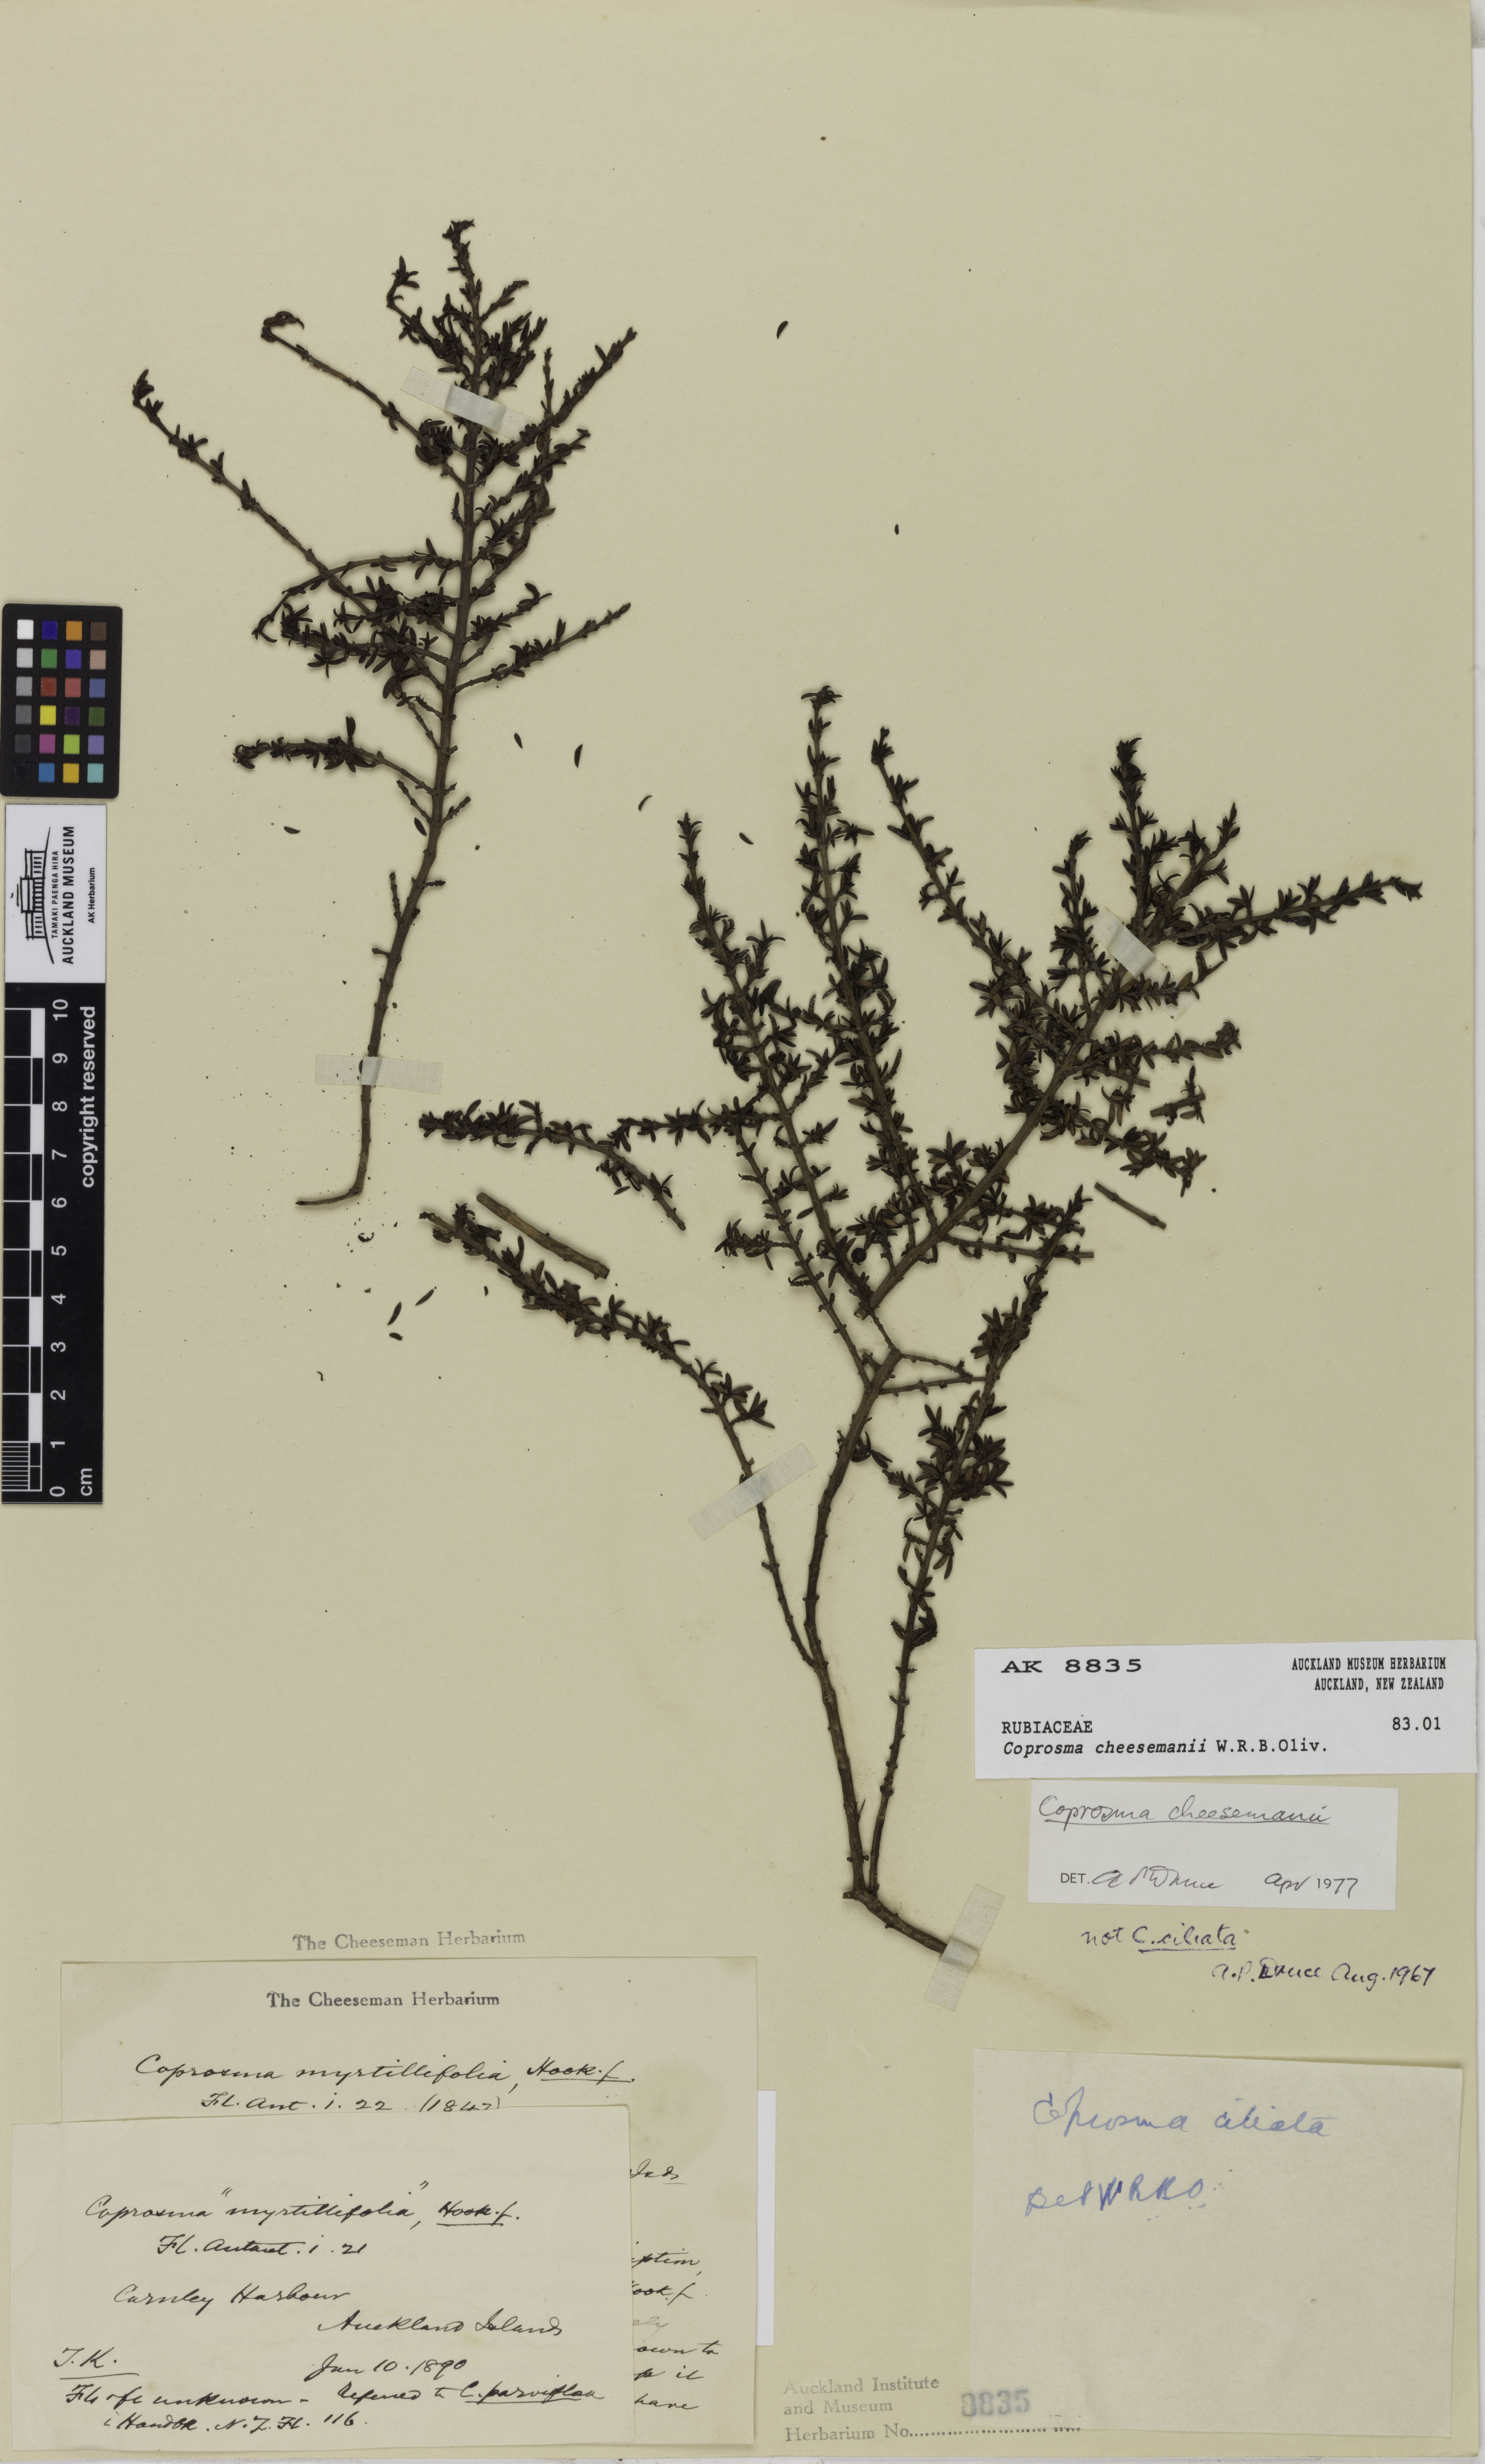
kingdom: Plantae
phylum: Tracheophyta
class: Magnoliopsida
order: Gentianales
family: Rubiaceae
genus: Coprosma
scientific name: Coprosma cheesemanii
